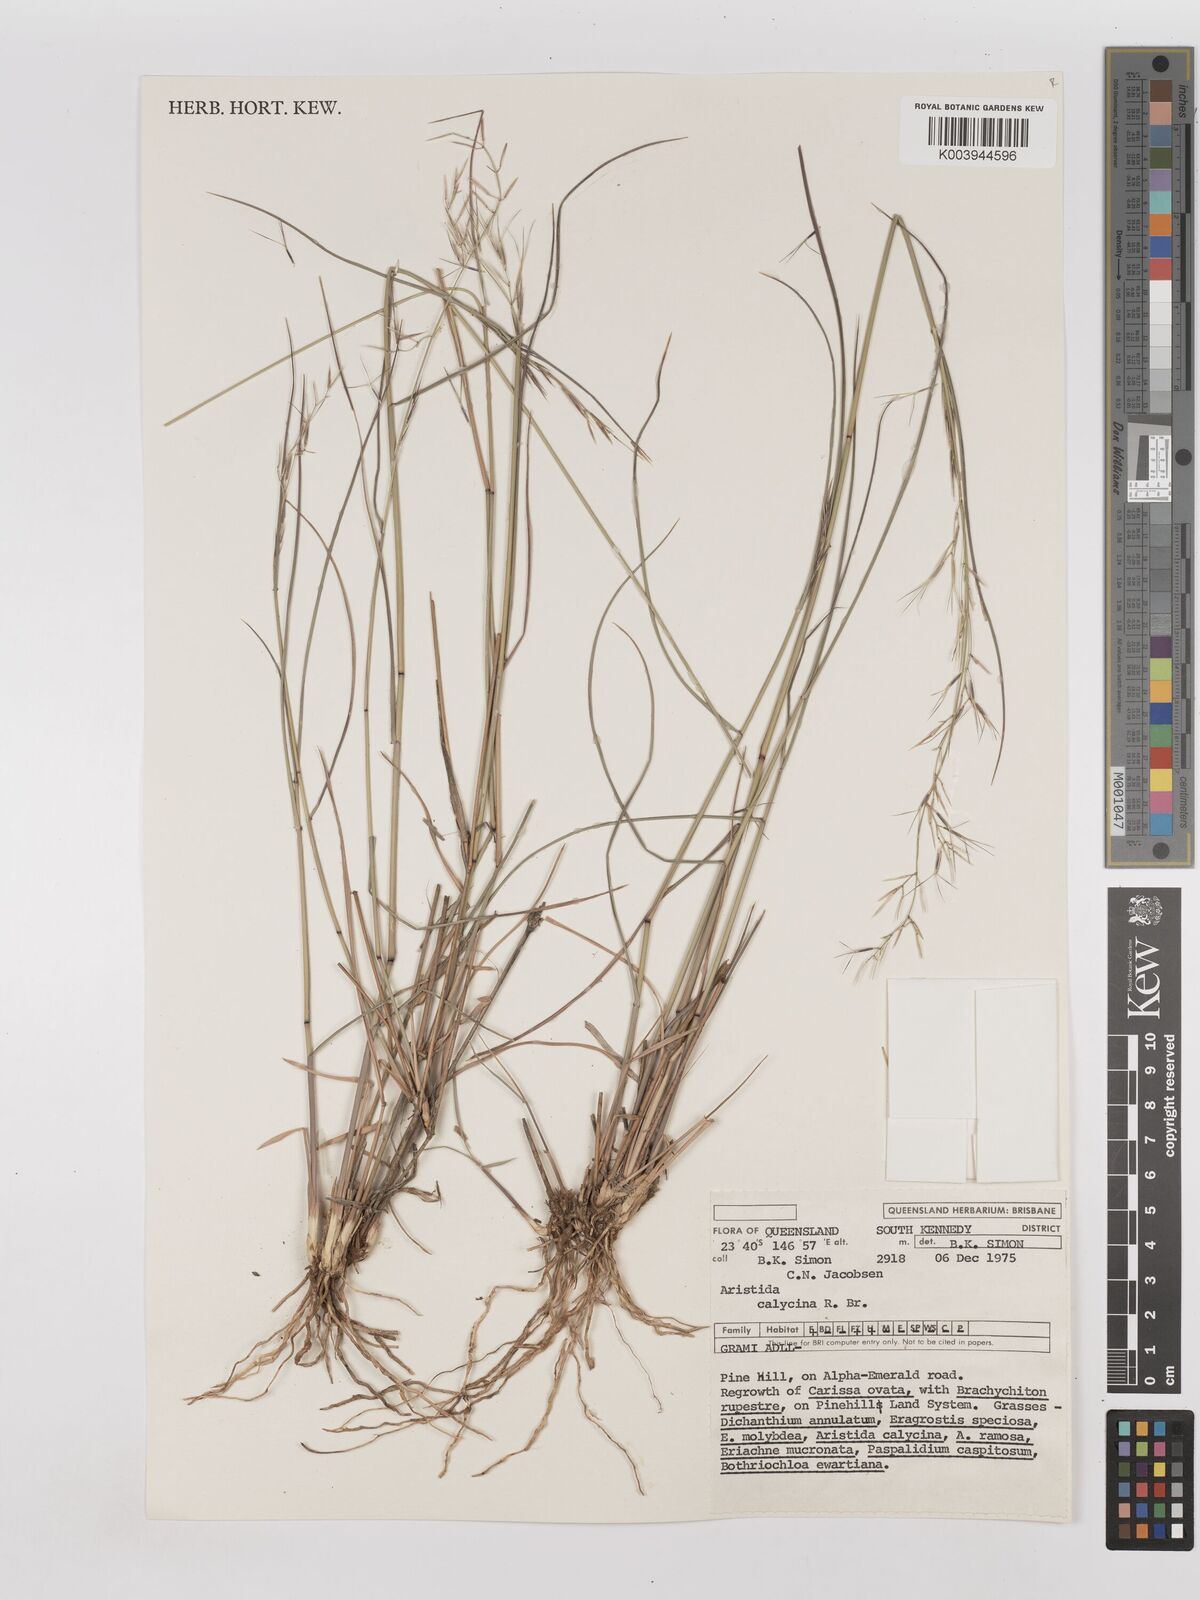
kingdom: Plantae
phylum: Tracheophyta
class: Liliopsida
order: Poales
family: Poaceae
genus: Aristida
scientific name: Aristida calycina
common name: Dark wire grass
